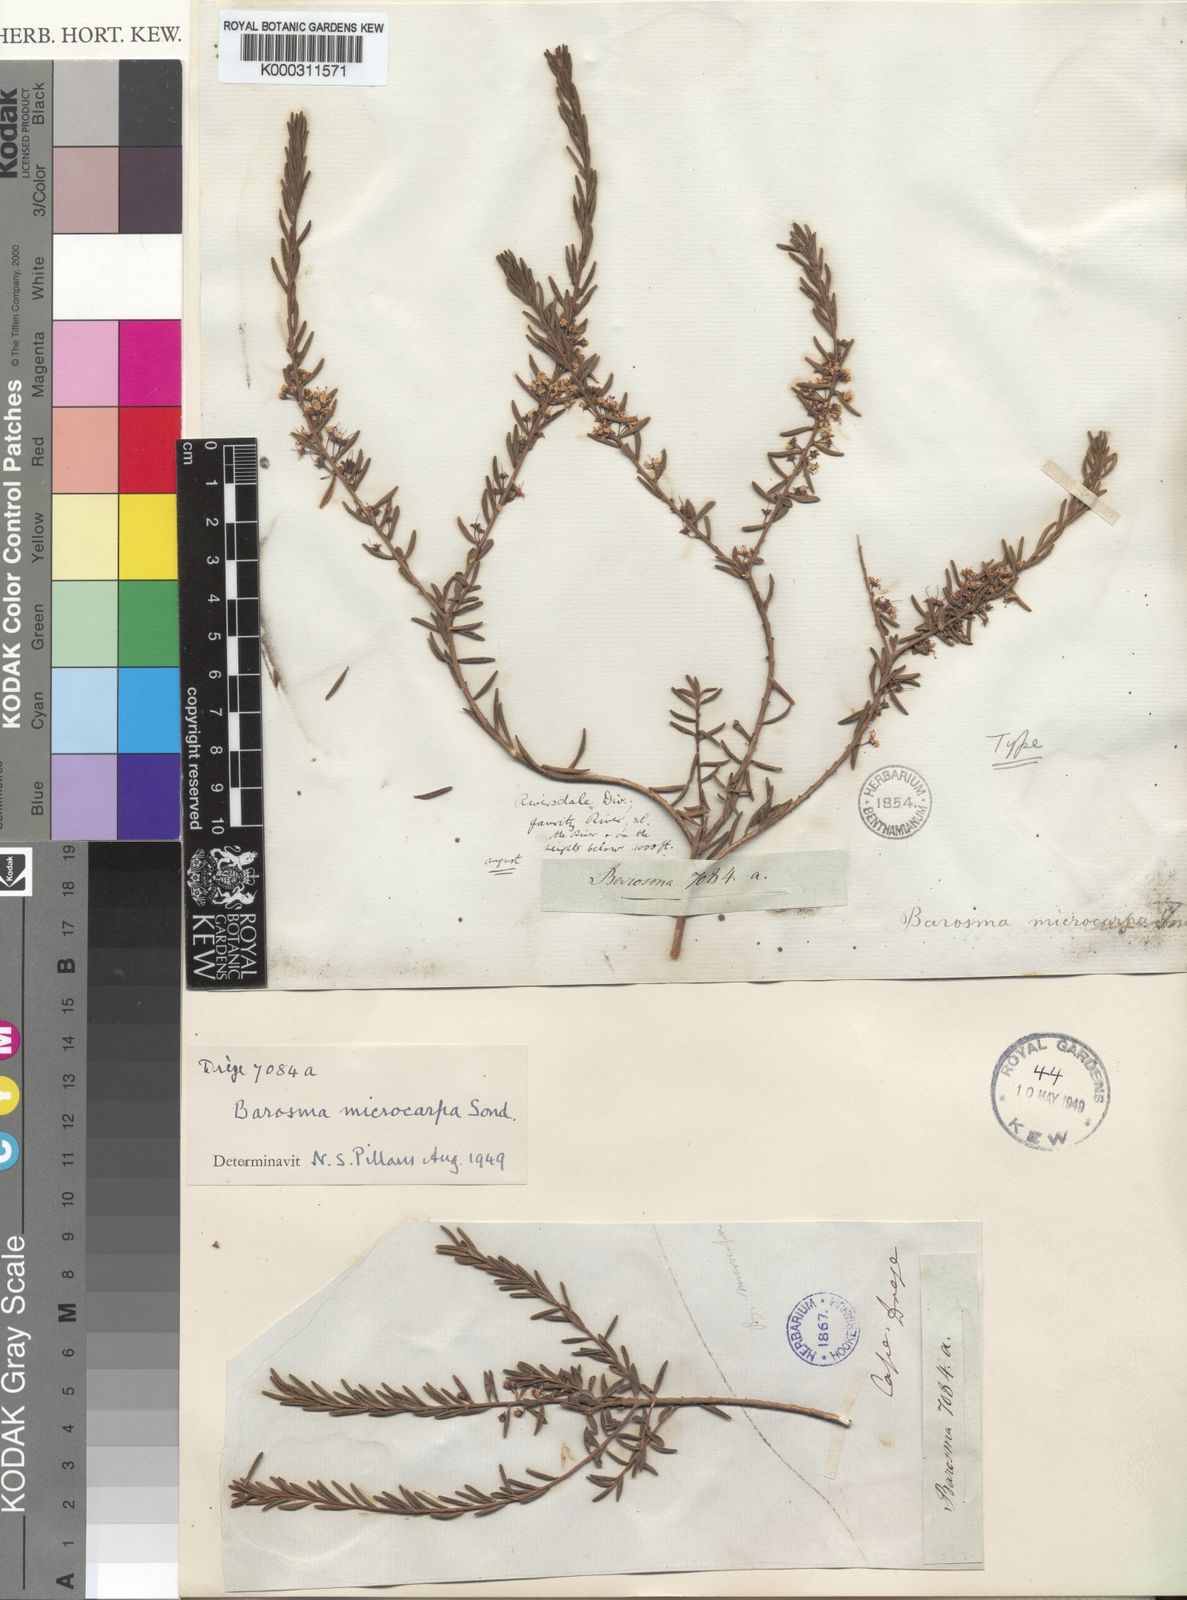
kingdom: Plantae
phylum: Tracheophyta
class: Magnoliopsida
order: Sapindales
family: Rutaceae
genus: Agathosma
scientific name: Agathosma microcarpa
